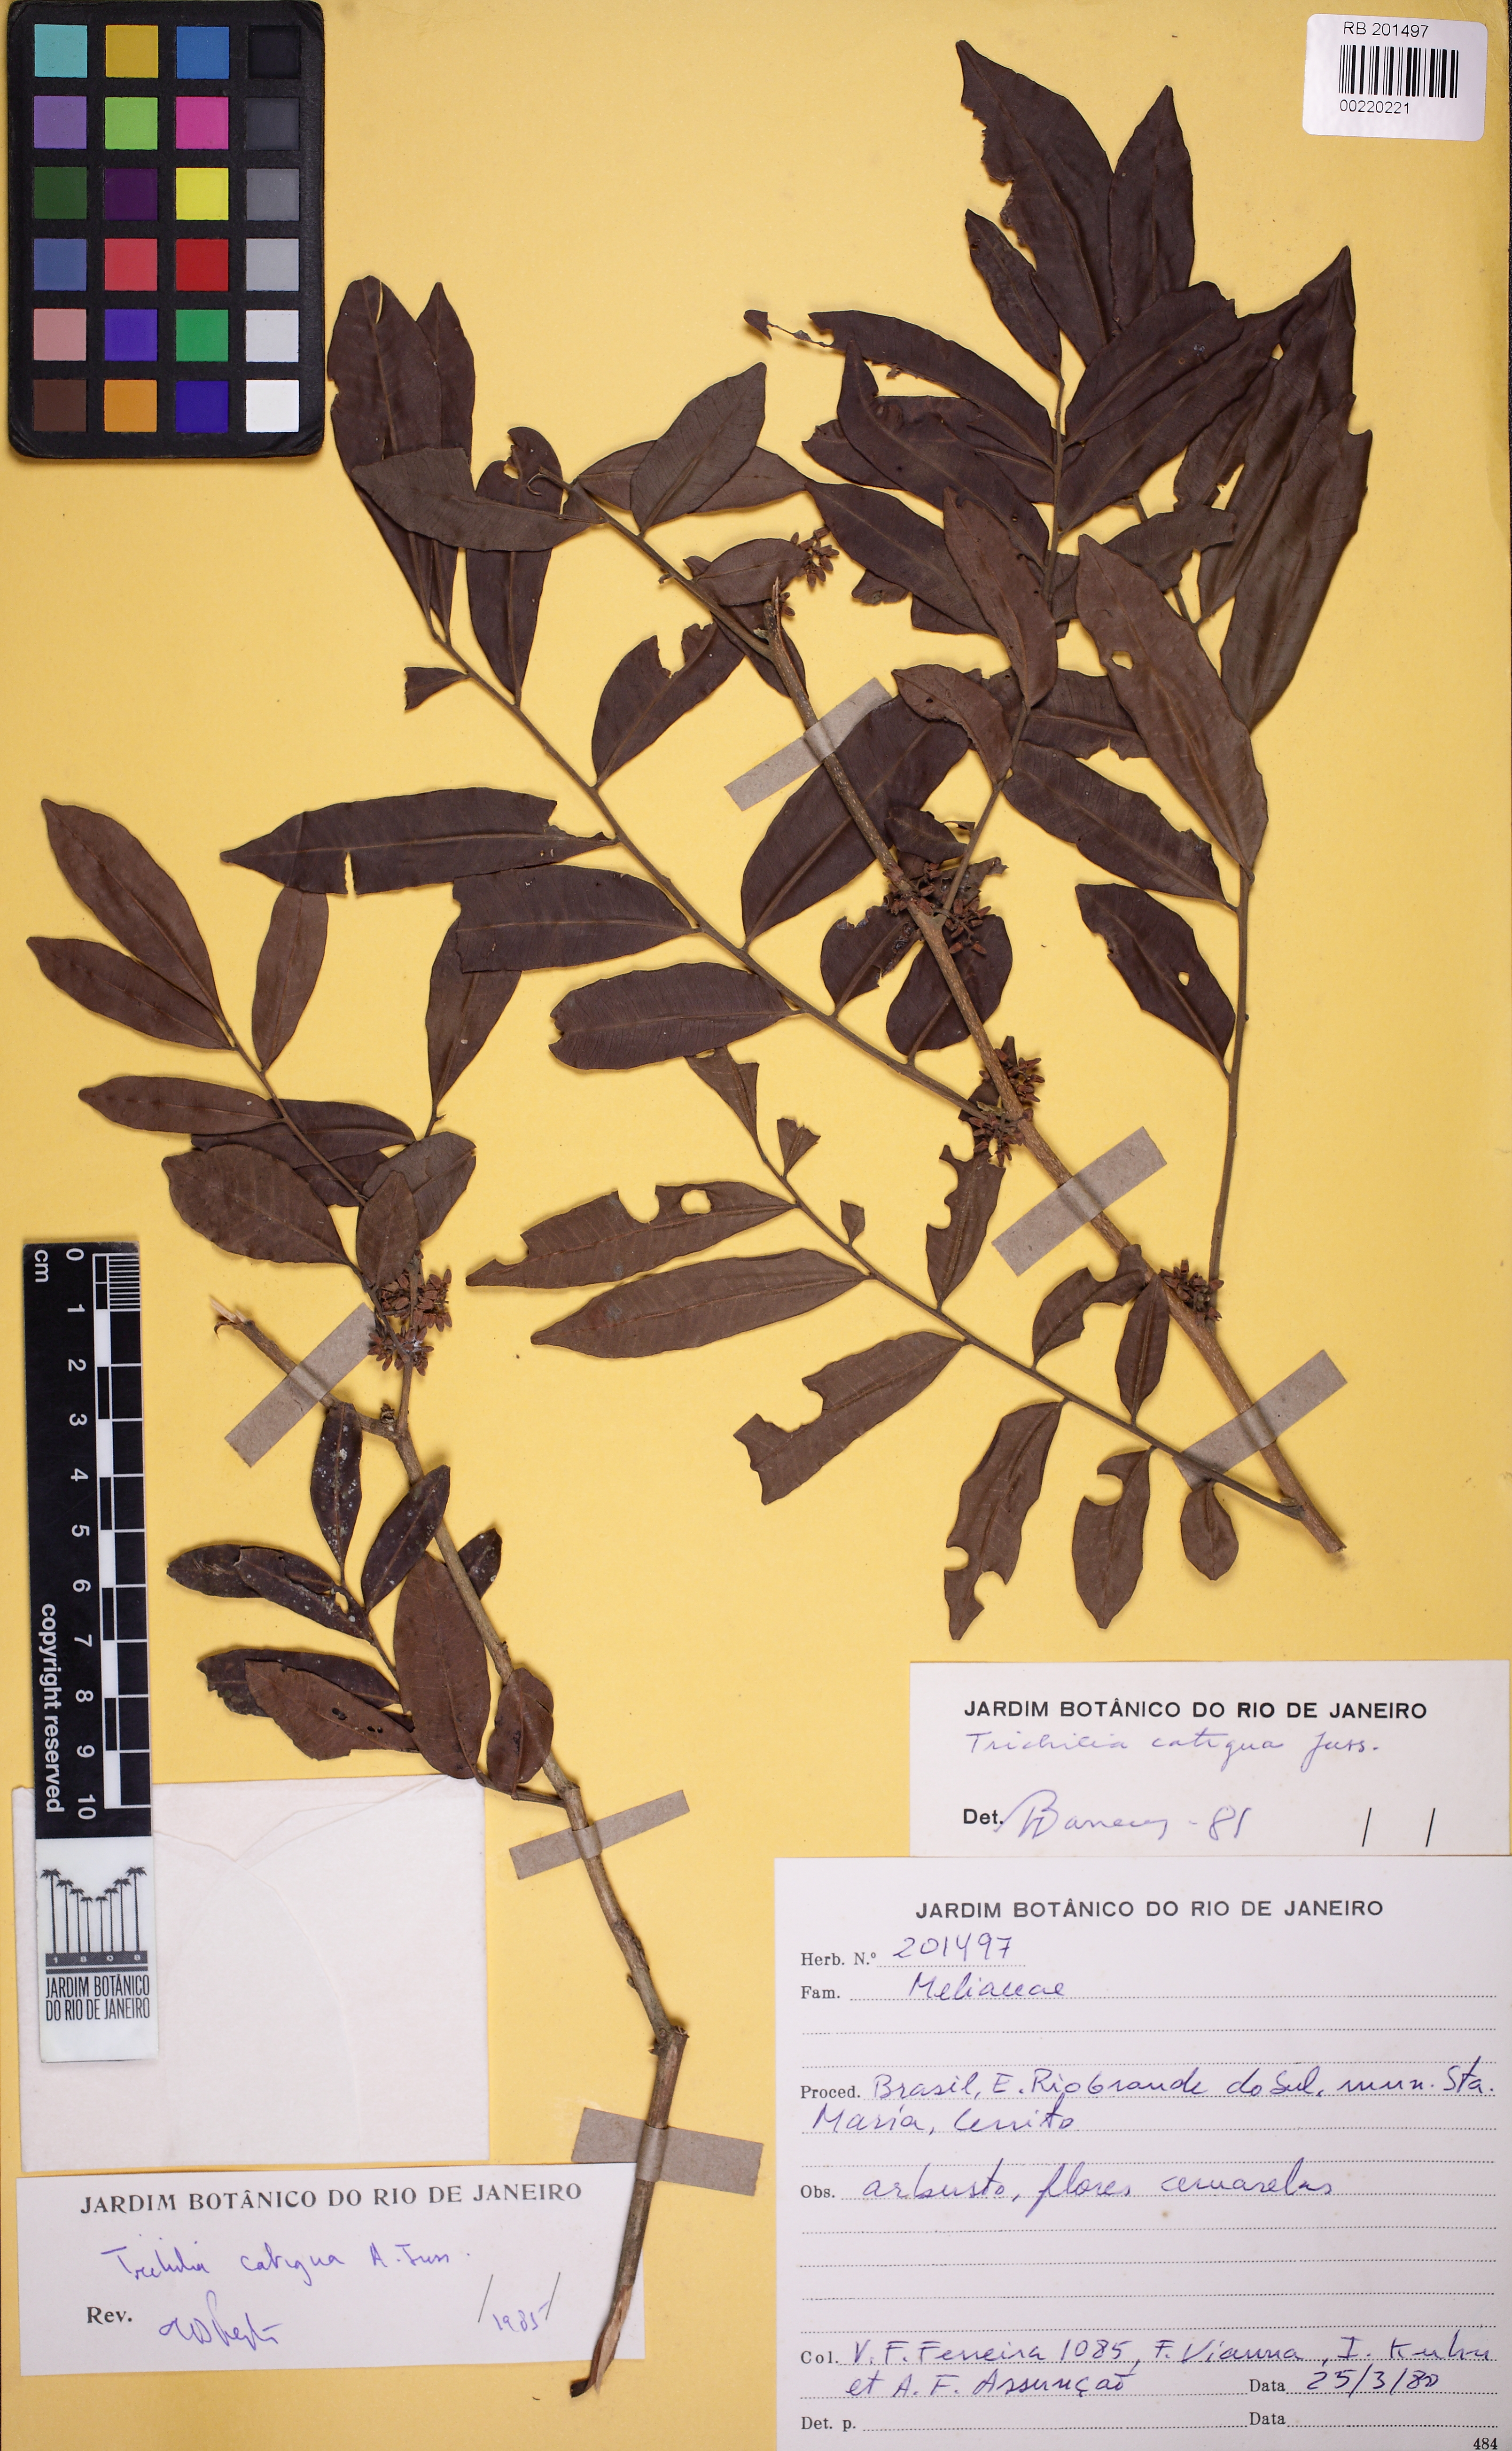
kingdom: Plantae
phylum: Tracheophyta
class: Magnoliopsida
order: Sapindales
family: Meliaceae
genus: Trichilia
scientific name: Trichilia catigua
